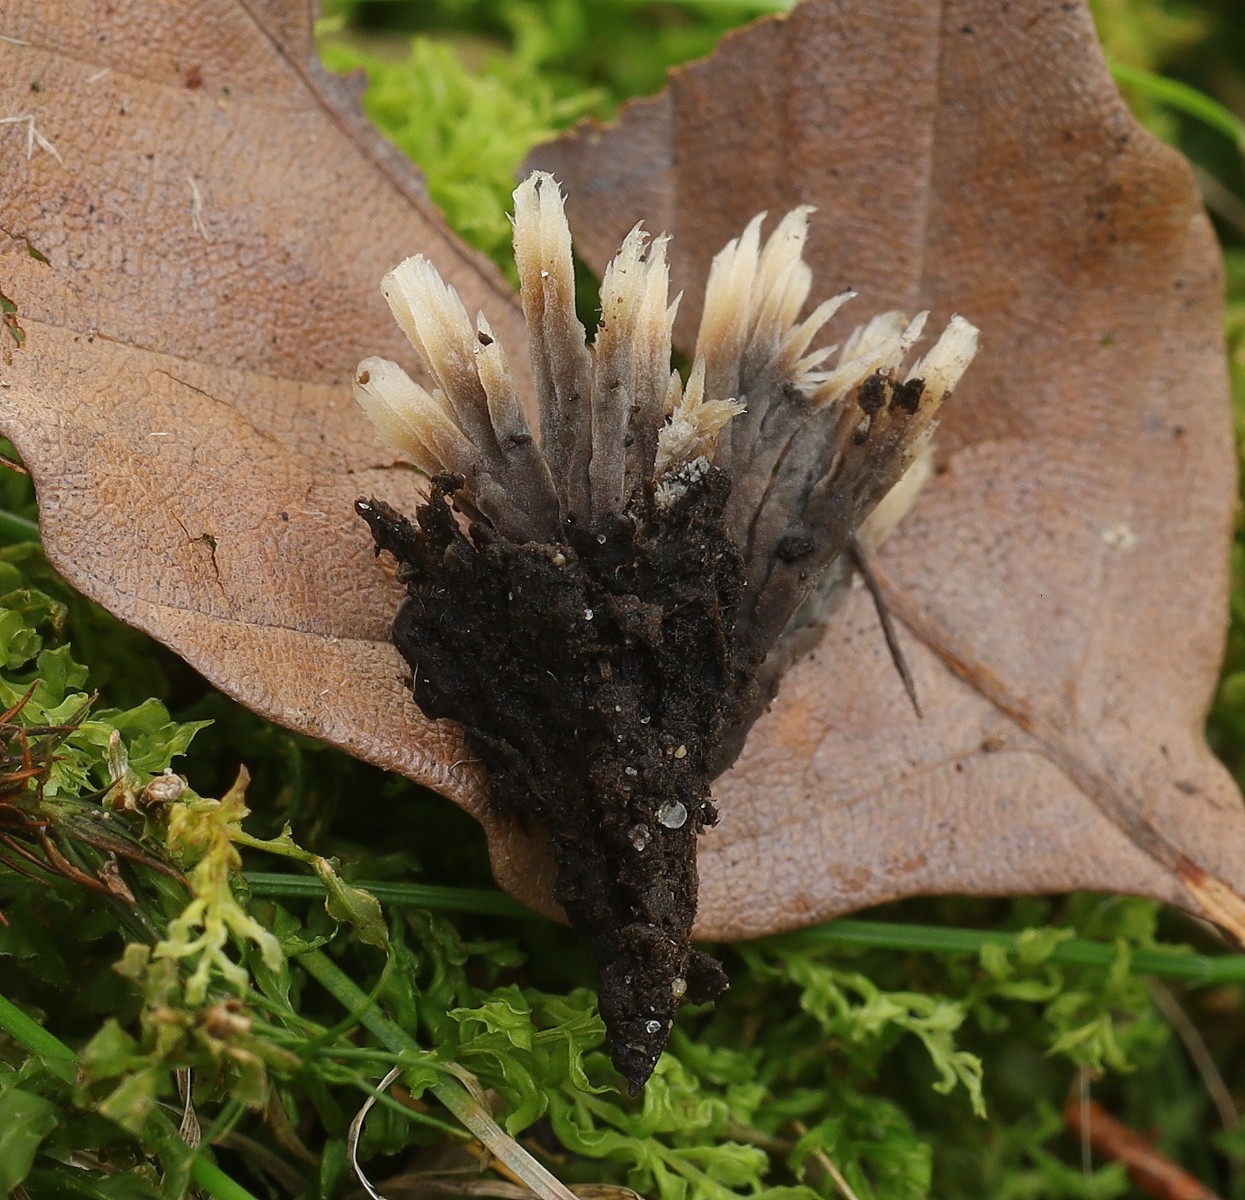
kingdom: Fungi
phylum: Basidiomycota
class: Agaricomycetes
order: Thelephorales
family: Thelephoraceae
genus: Thelephora
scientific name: Thelephora penicillata
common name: fladtrådt frynsesvamp
